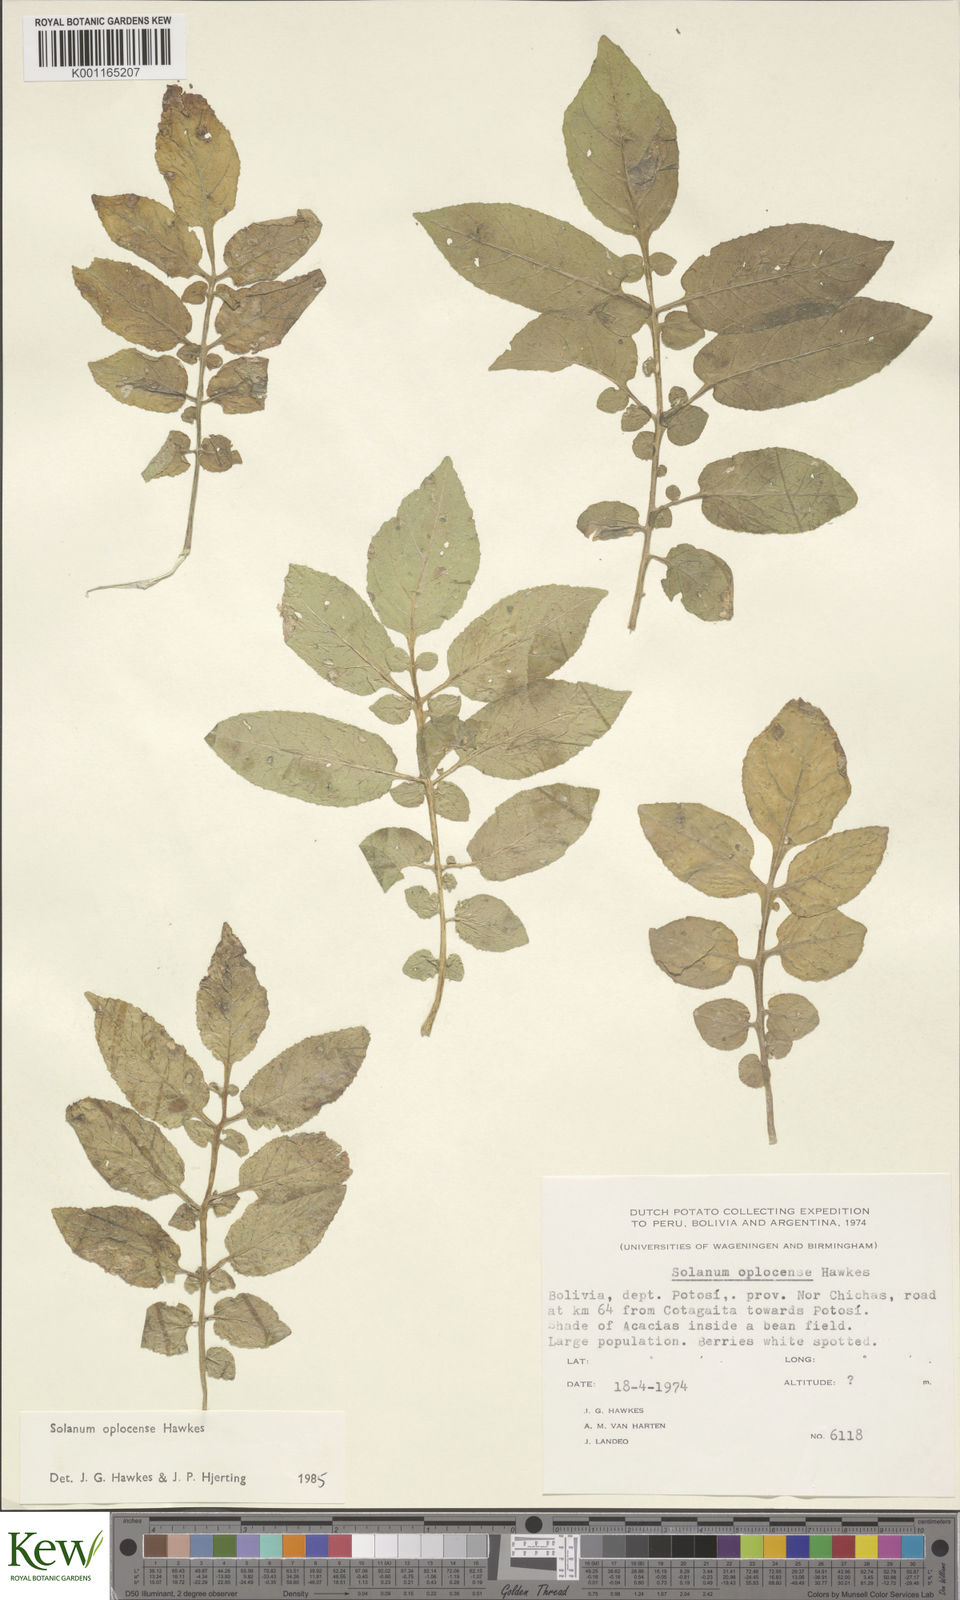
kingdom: Plantae
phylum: Tracheophyta
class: Magnoliopsida
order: Solanales
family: Solanaceae
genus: Solanum
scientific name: Solanum brevicaule
